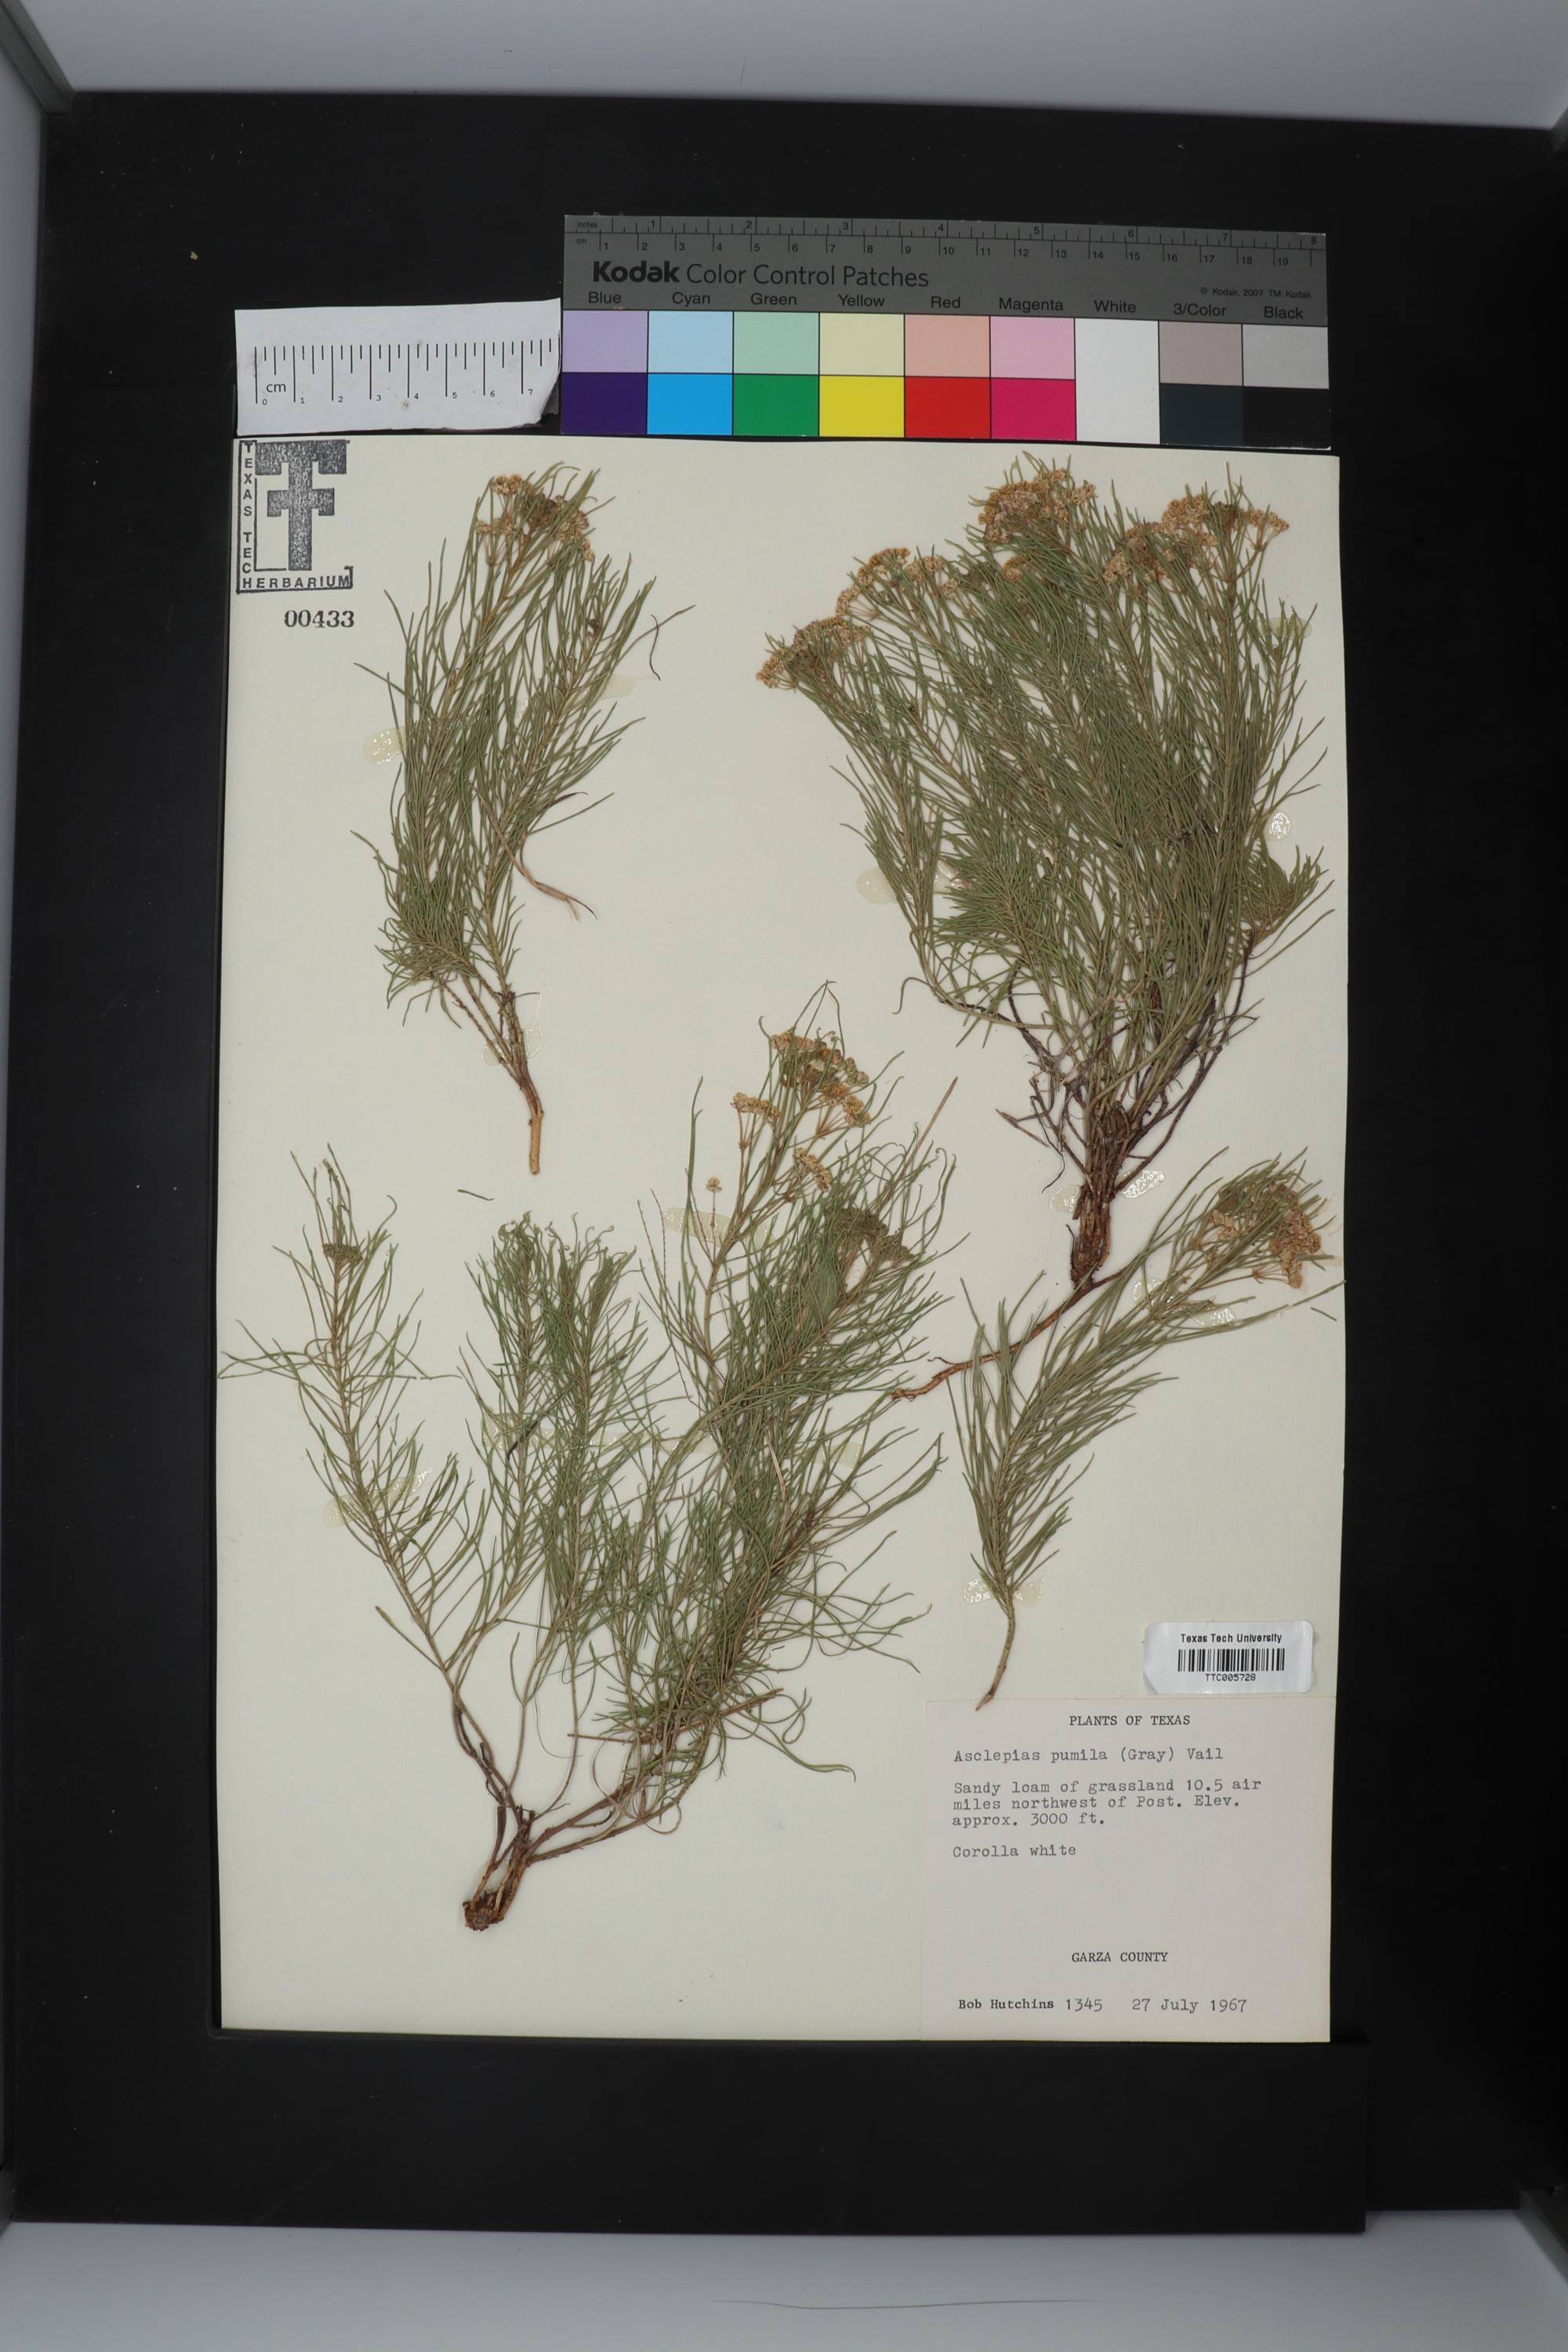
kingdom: Plantae
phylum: Tracheophyta
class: Magnoliopsida
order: Gentianales
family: Apocynaceae
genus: Asclepias
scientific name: Asclepias pumila
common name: Dwarf milkweed
